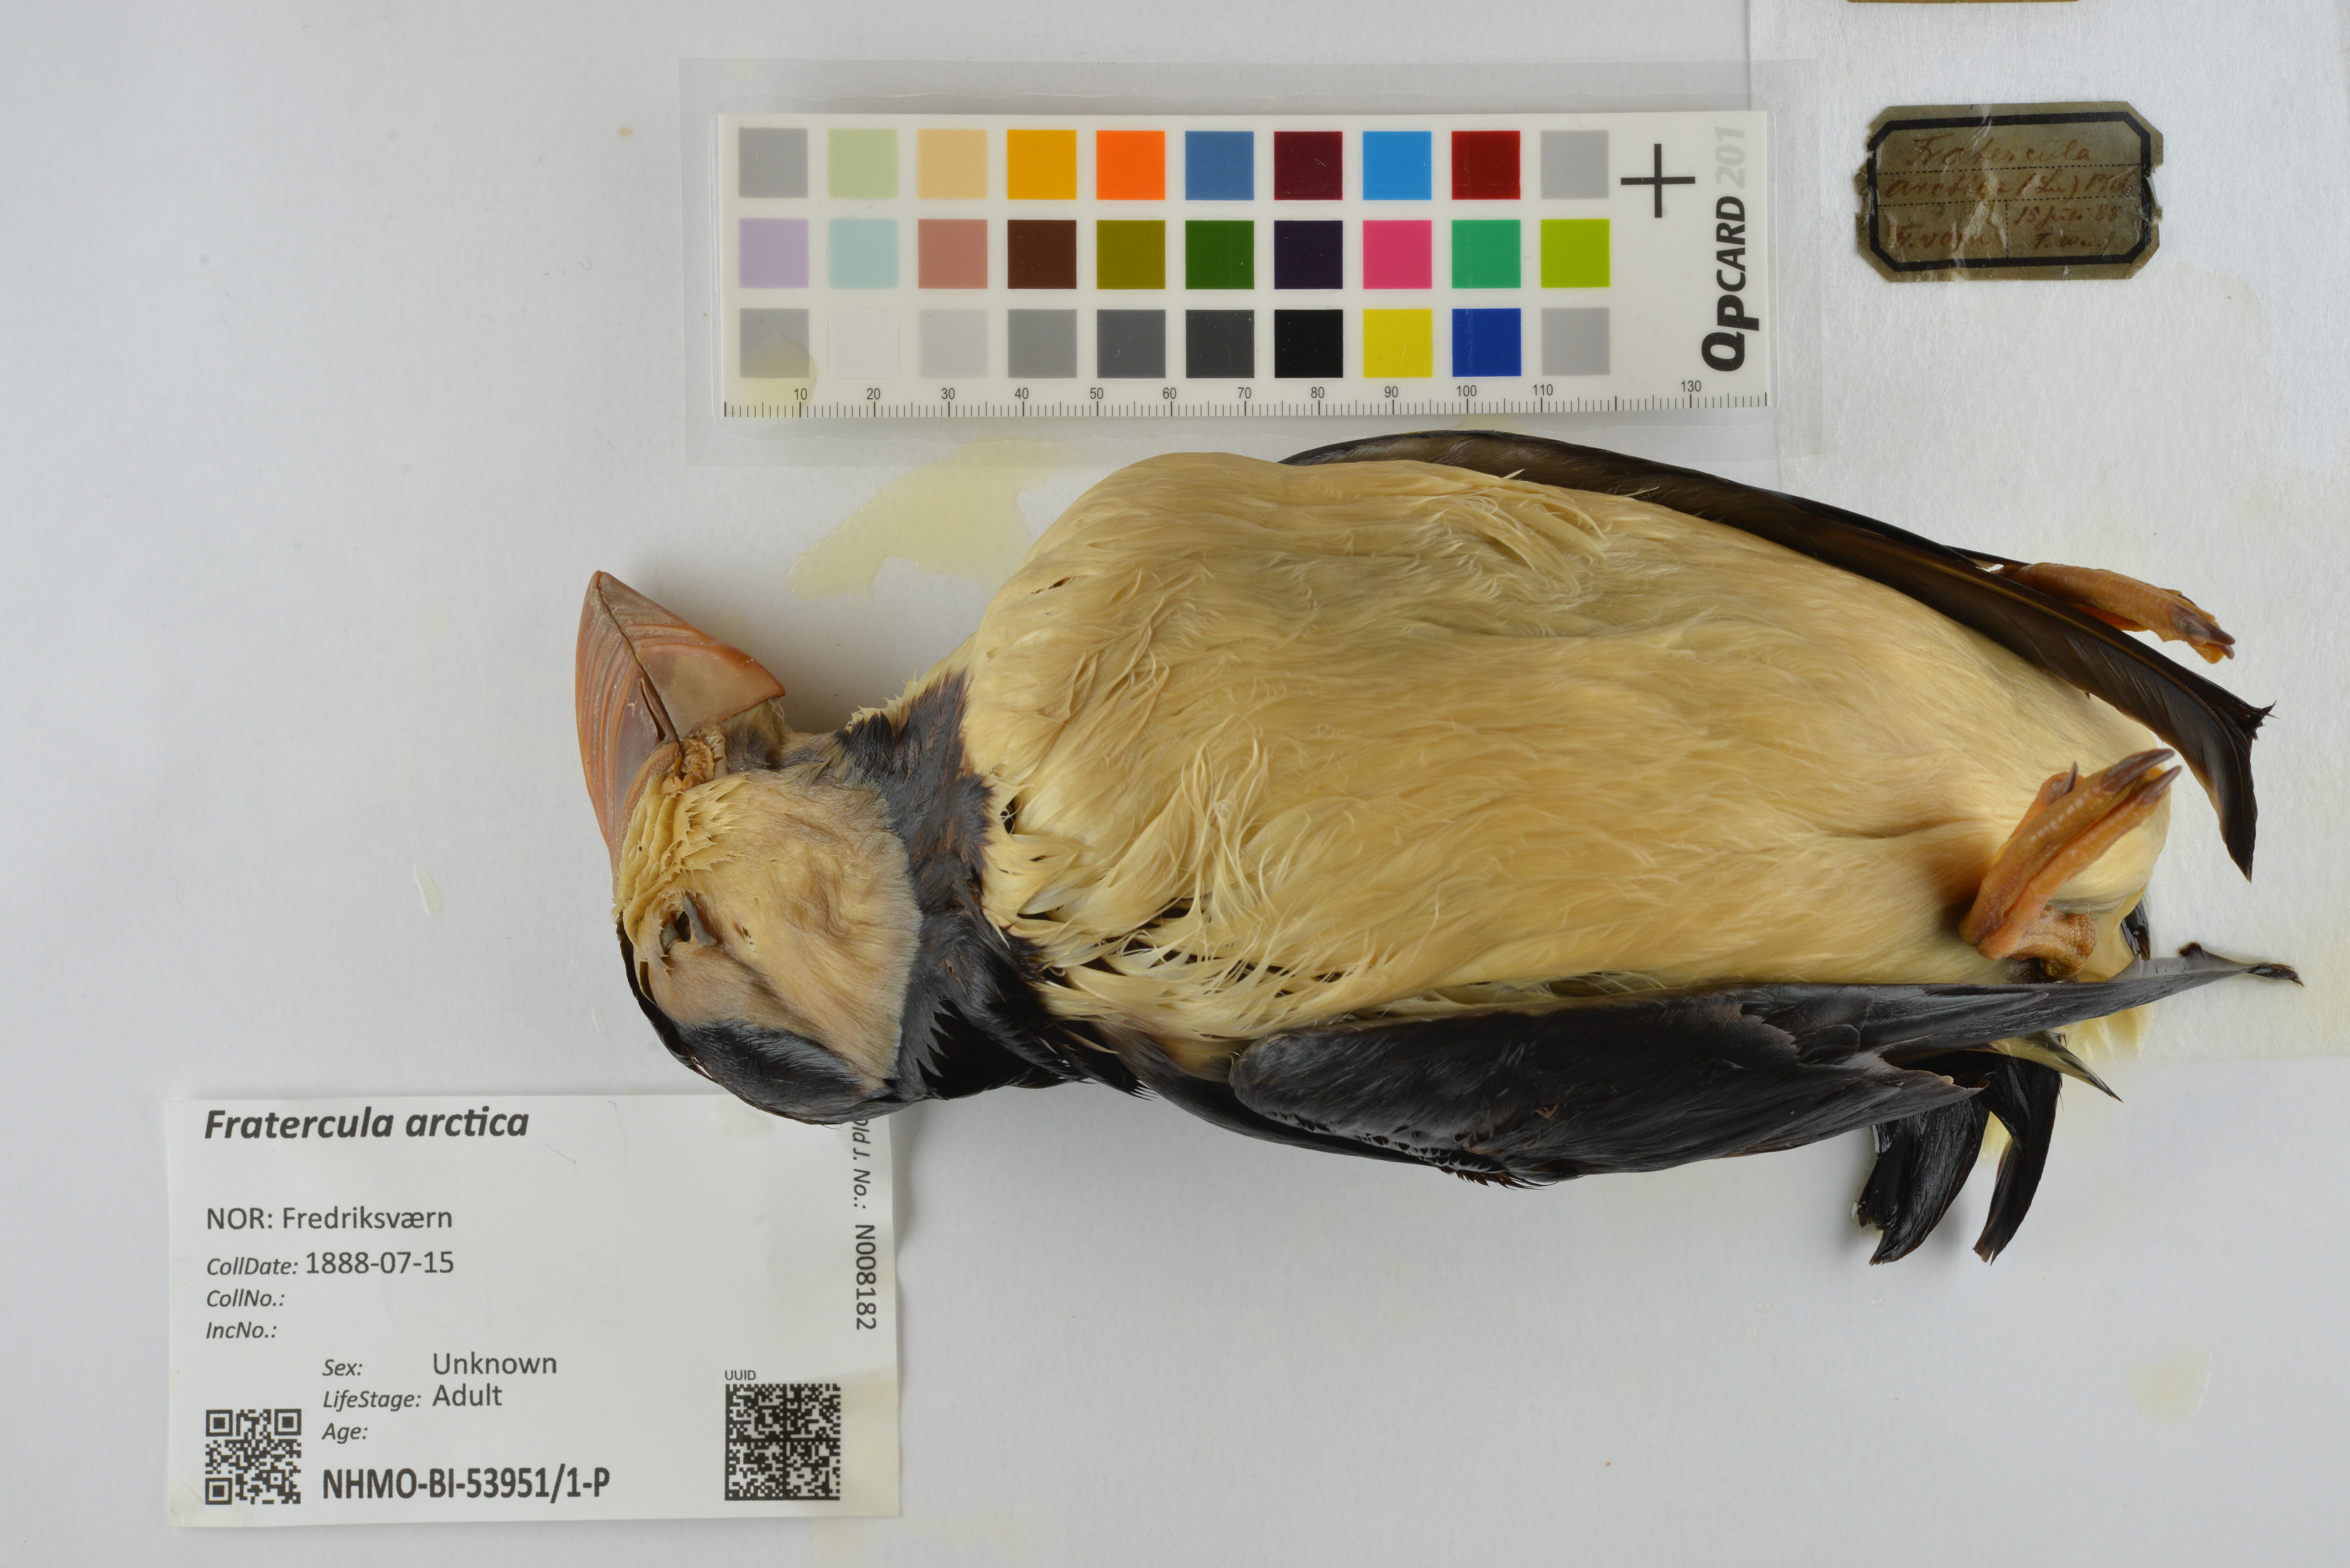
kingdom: Animalia
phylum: Chordata
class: Aves
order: Charadriiformes
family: Alcidae
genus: Fratercula
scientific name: Fratercula arctica
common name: Atlantic puffin
